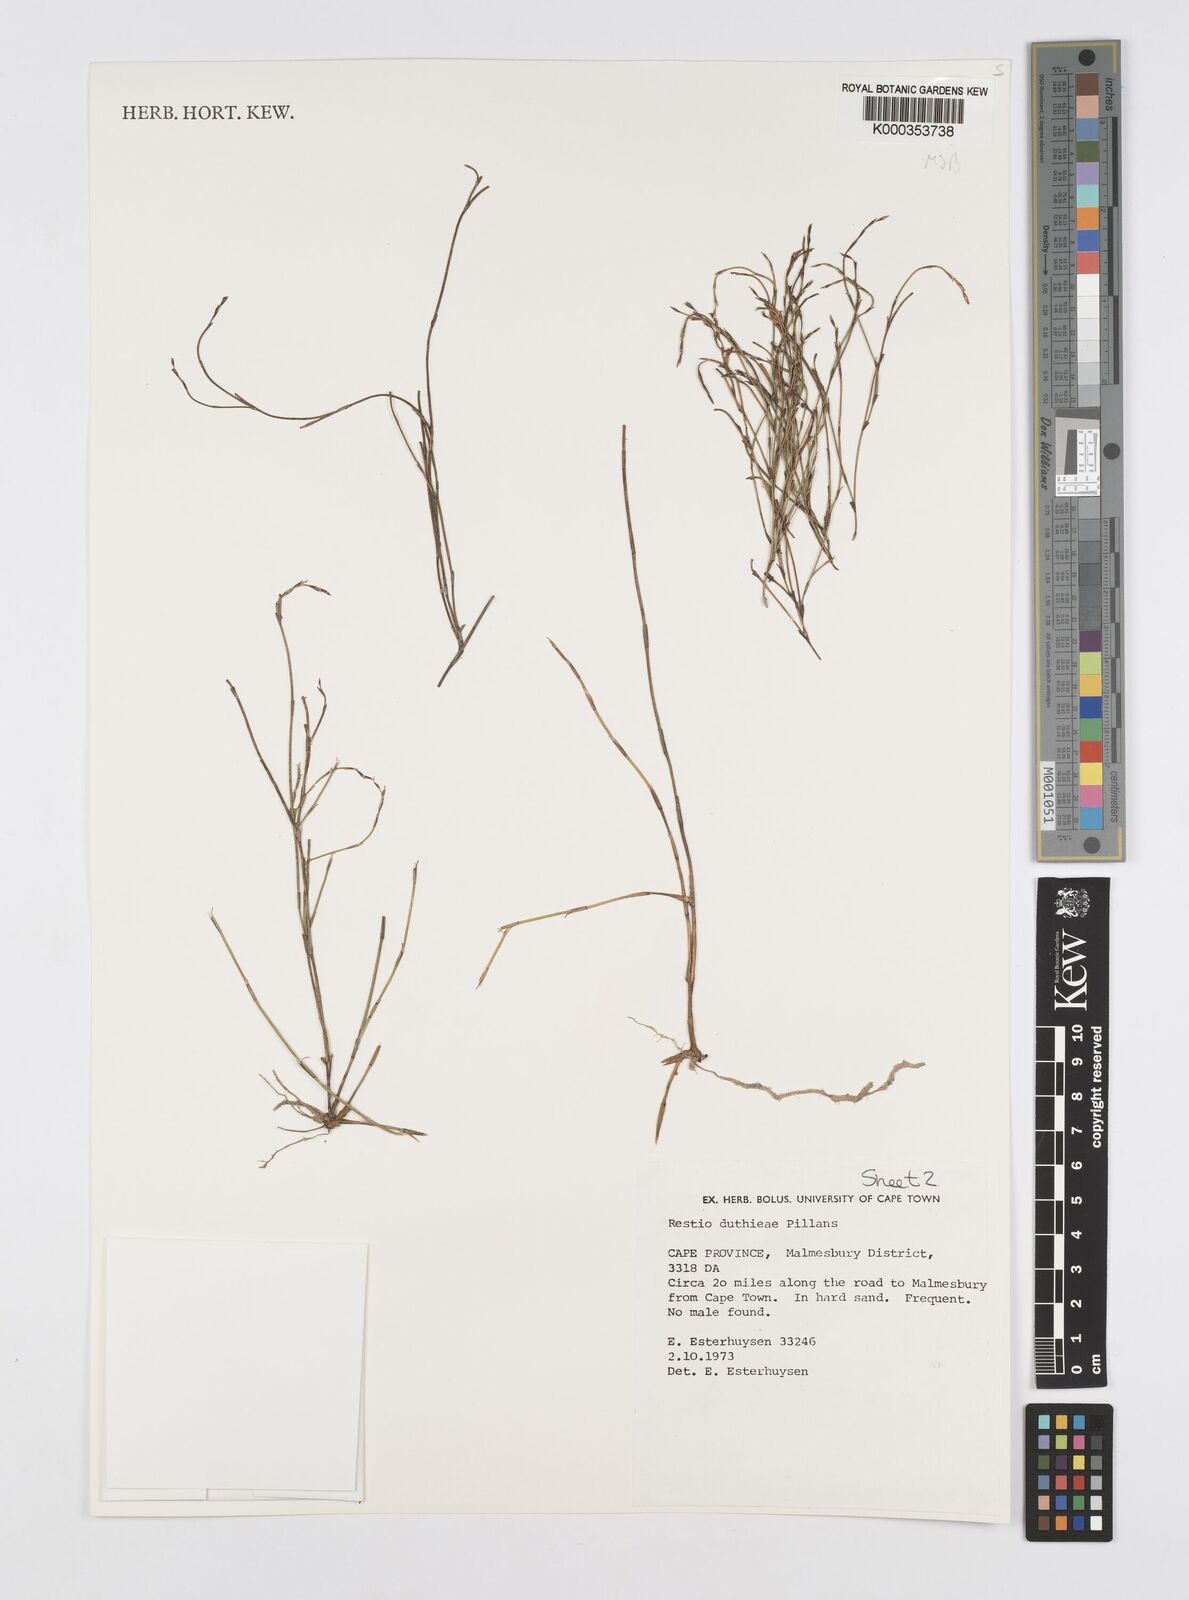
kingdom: Plantae
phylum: Tracheophyta
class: Liliopsida
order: Poales
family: Restionaceae
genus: Restio
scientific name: Restio duthieae
